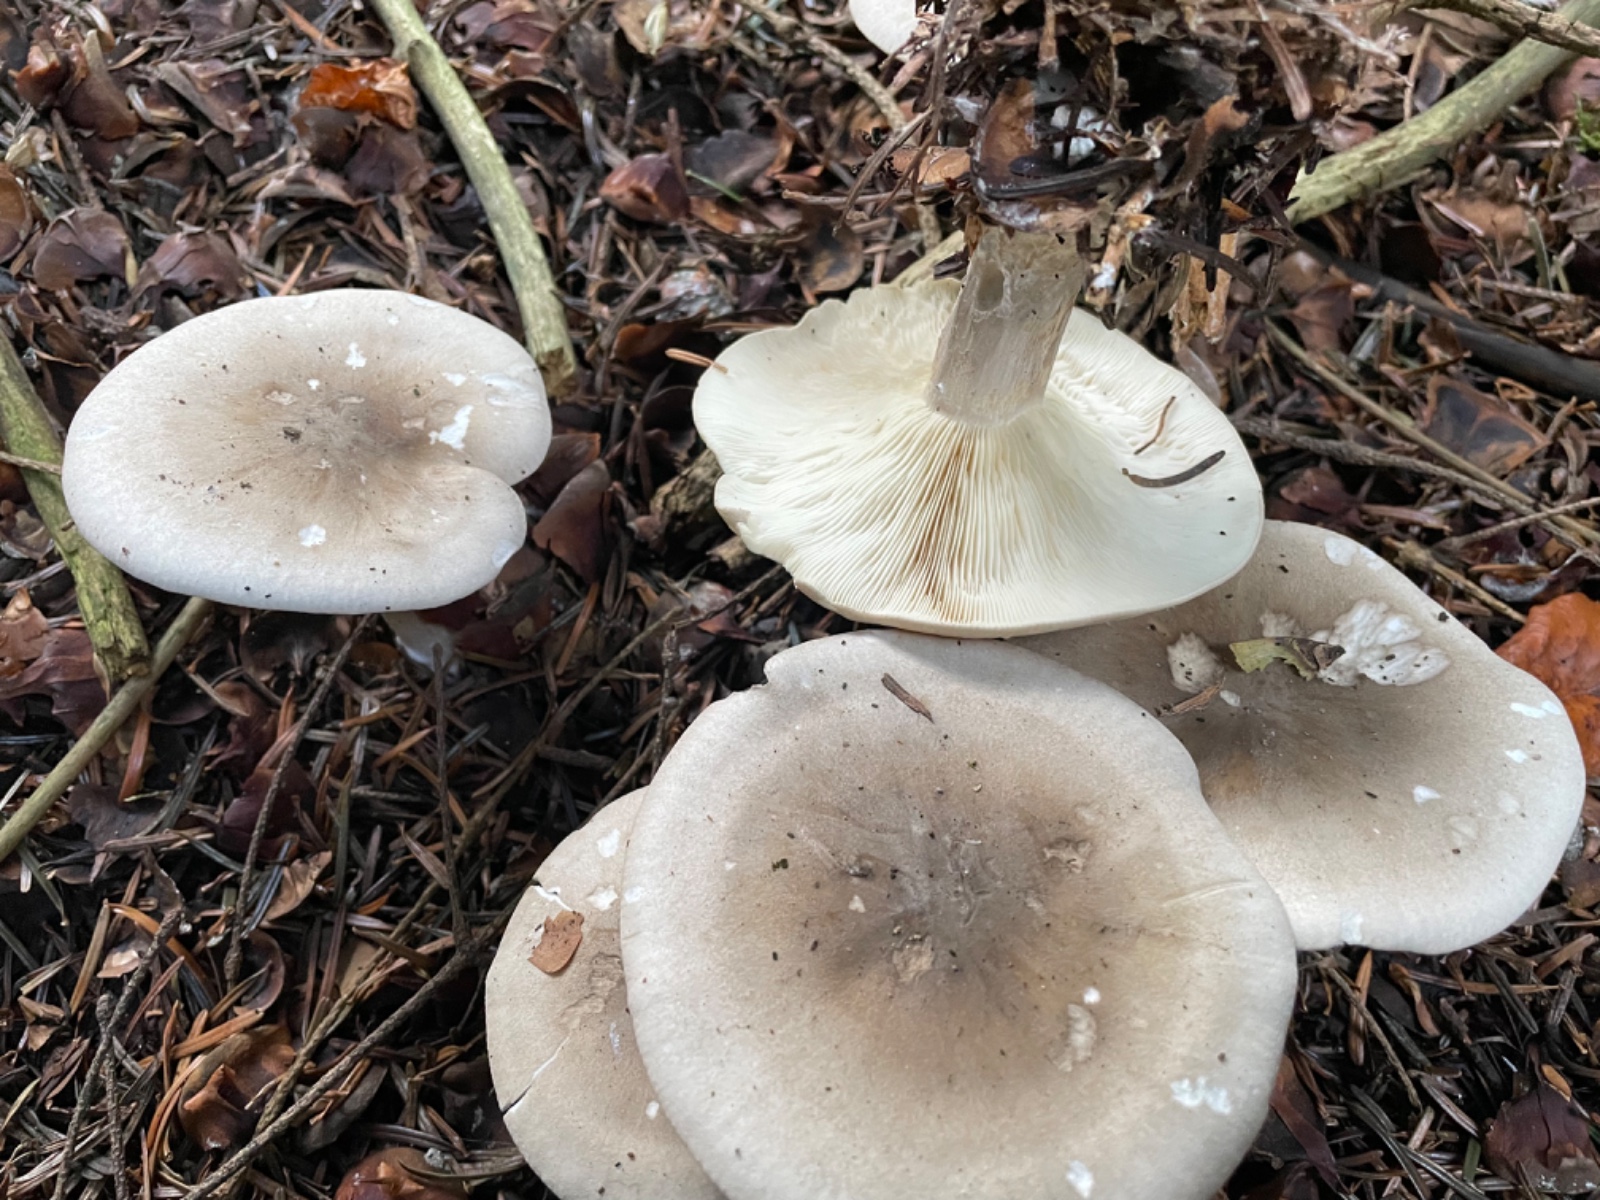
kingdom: Fungi
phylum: Basidiomycota
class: Agaricomycetes
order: Agaricales
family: Tricholomataceae
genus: Clitocybe
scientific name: Clitocybe nebularis
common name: tåge-tragthat
